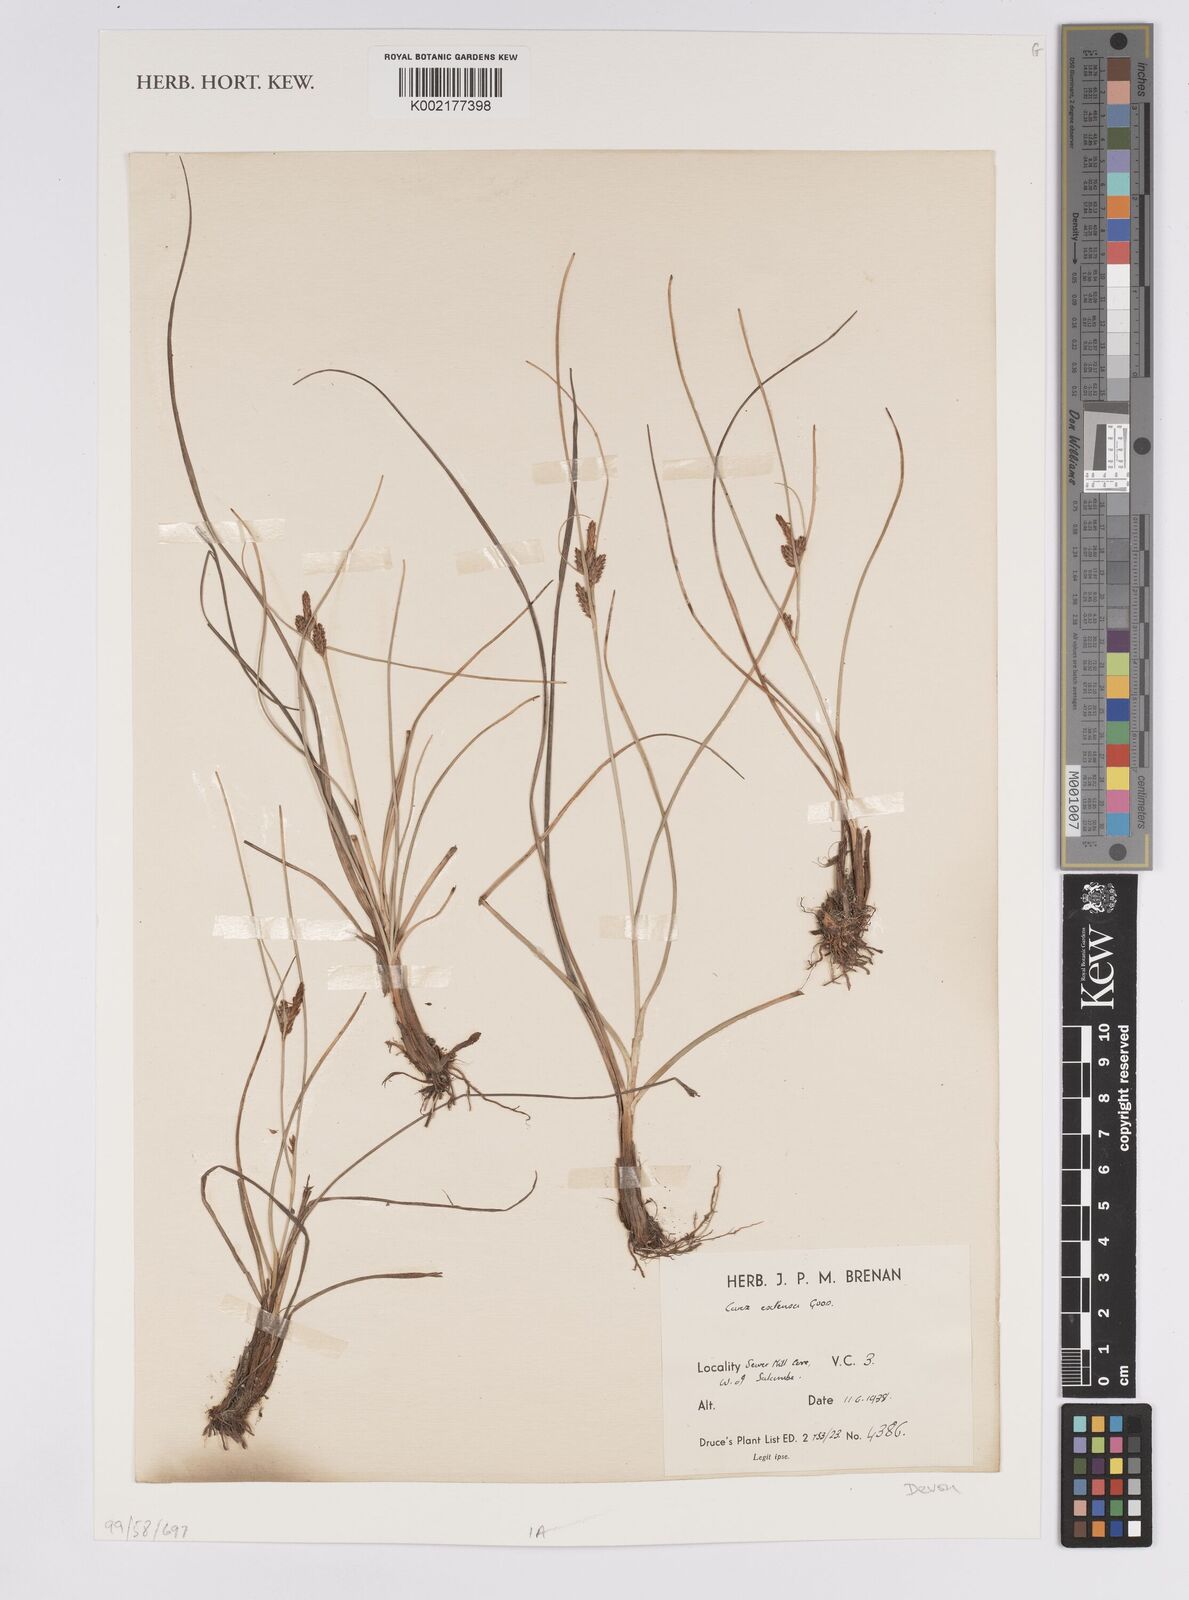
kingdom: Plantae
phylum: Tracheophyta
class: Liliopsida
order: Poales
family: Cyperaceae
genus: Carex
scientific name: Carex extensa
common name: Long-bracted sedge
